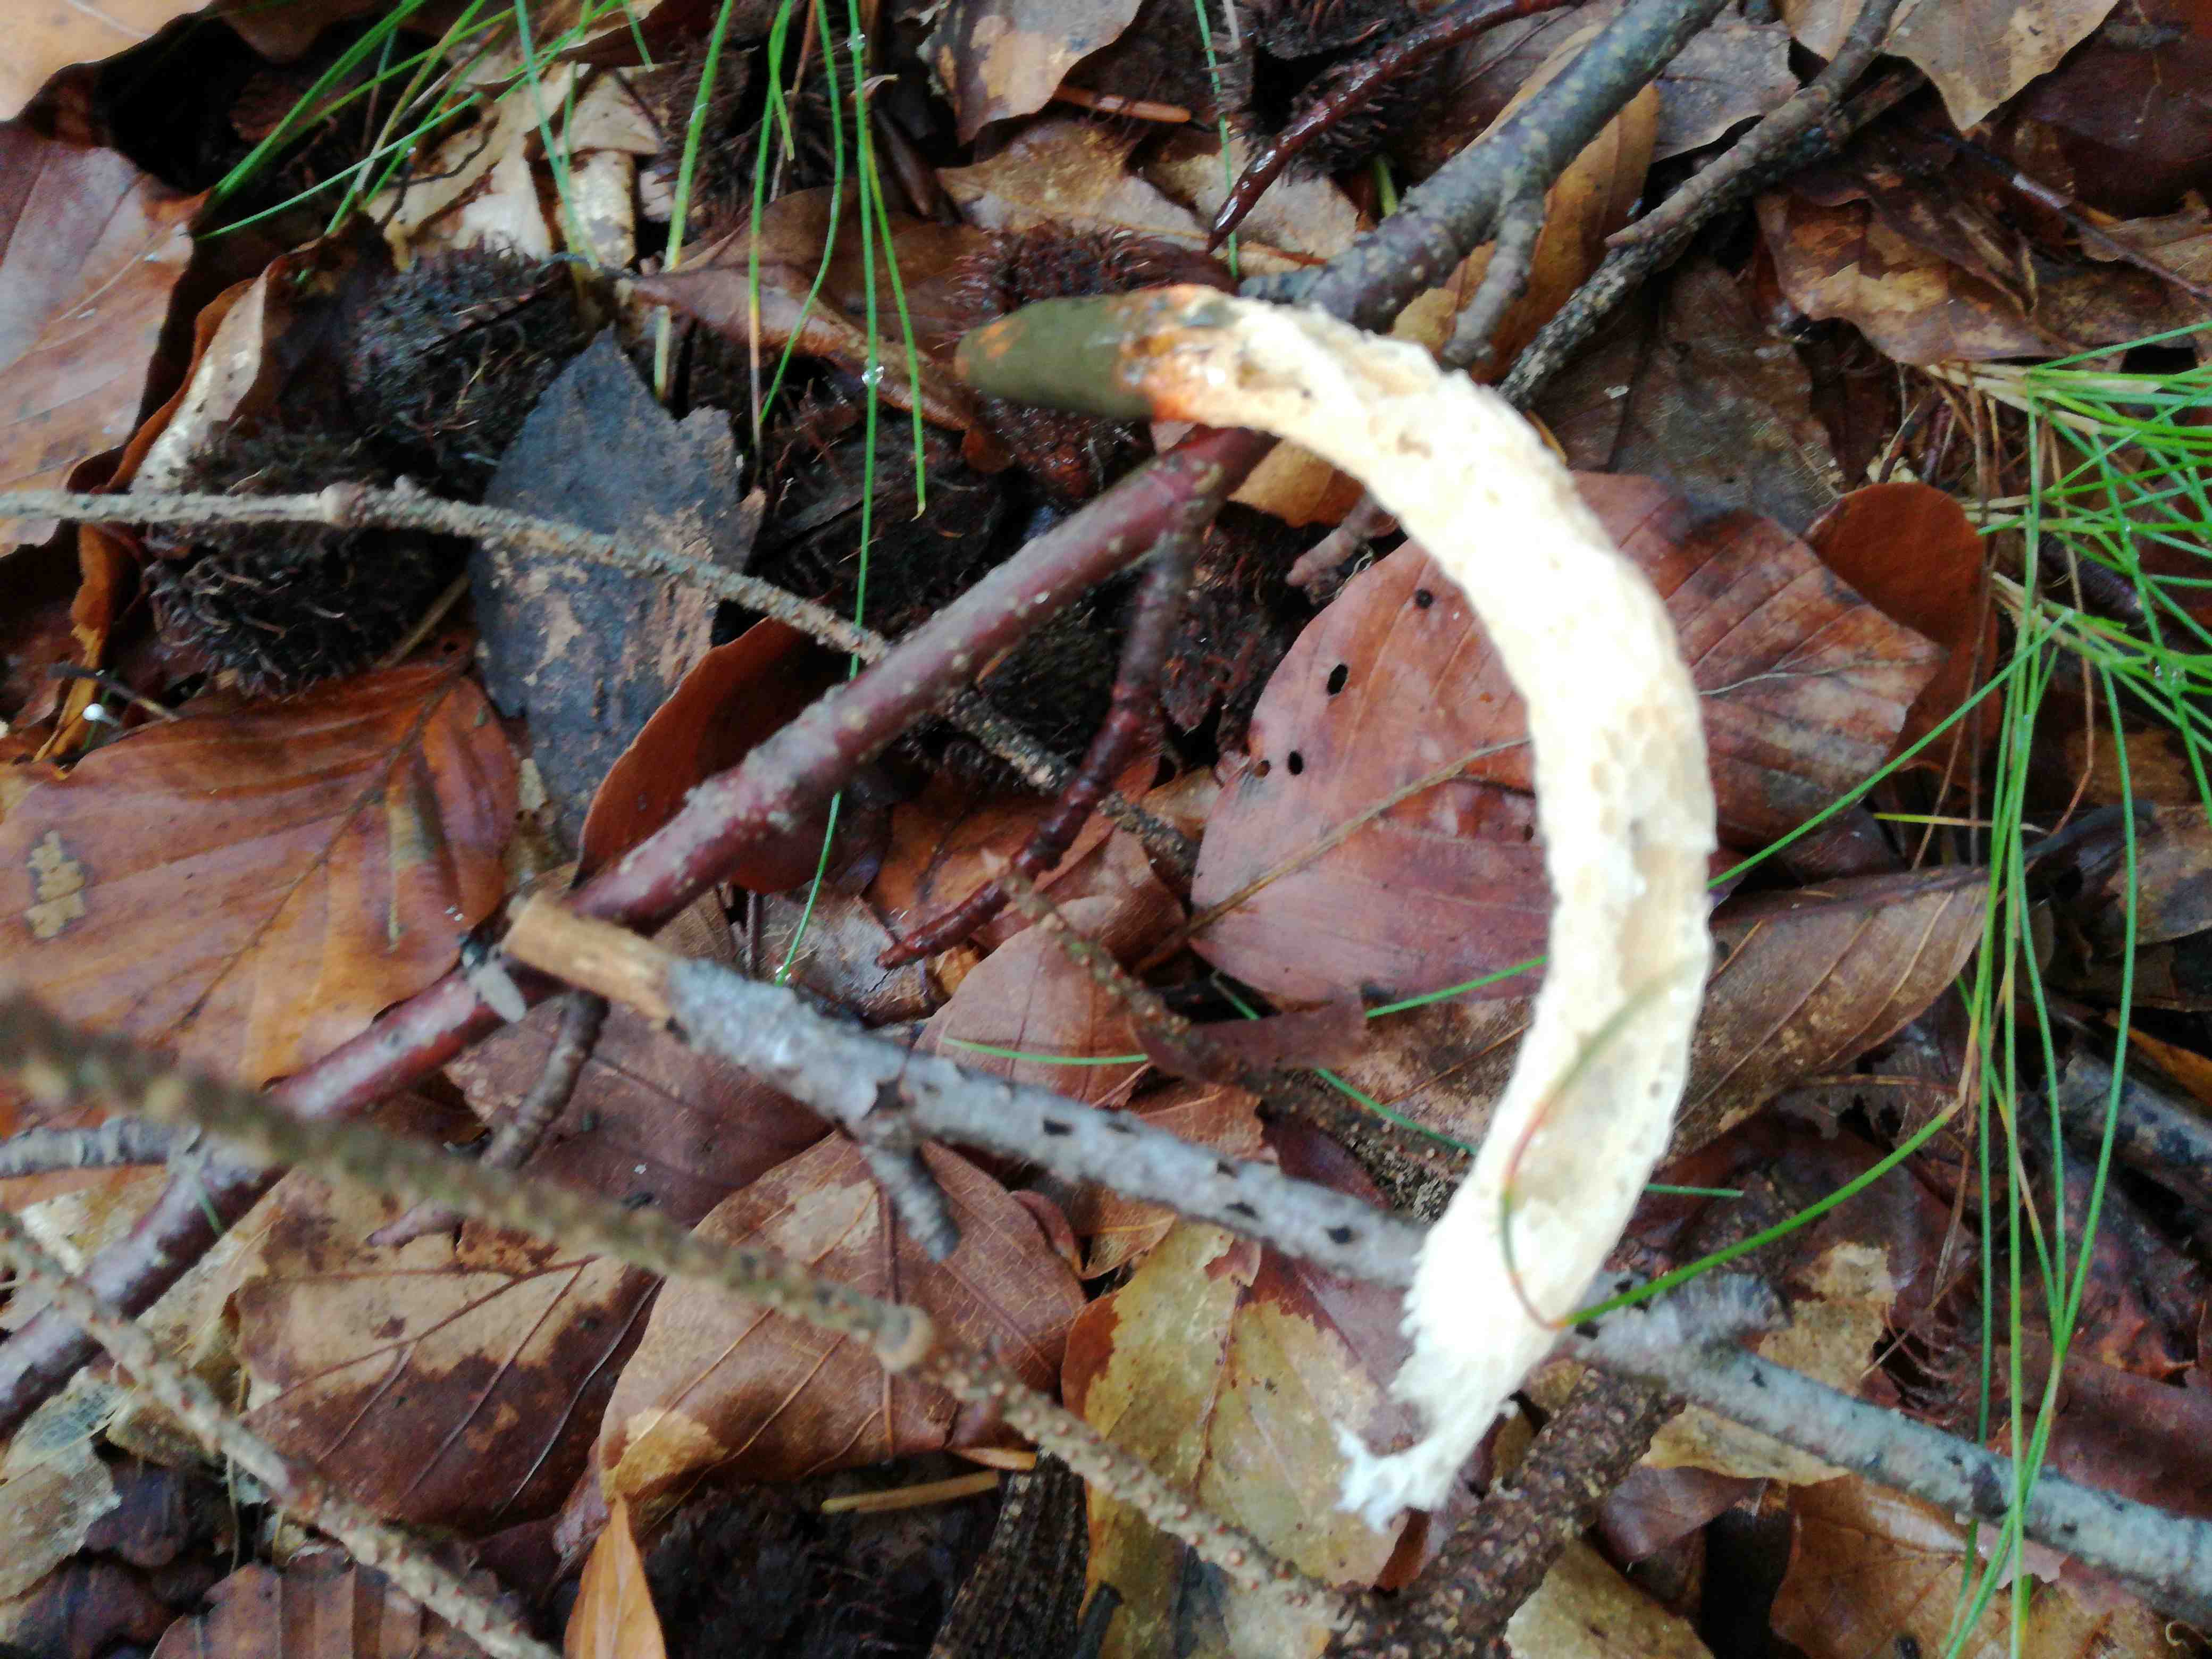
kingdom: Fungi
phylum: Basidiomycota
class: Agaricomycetes
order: Phallales
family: Phallaceae
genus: Mutinus
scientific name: Mutinus caninus
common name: hunde-stinksvamp
